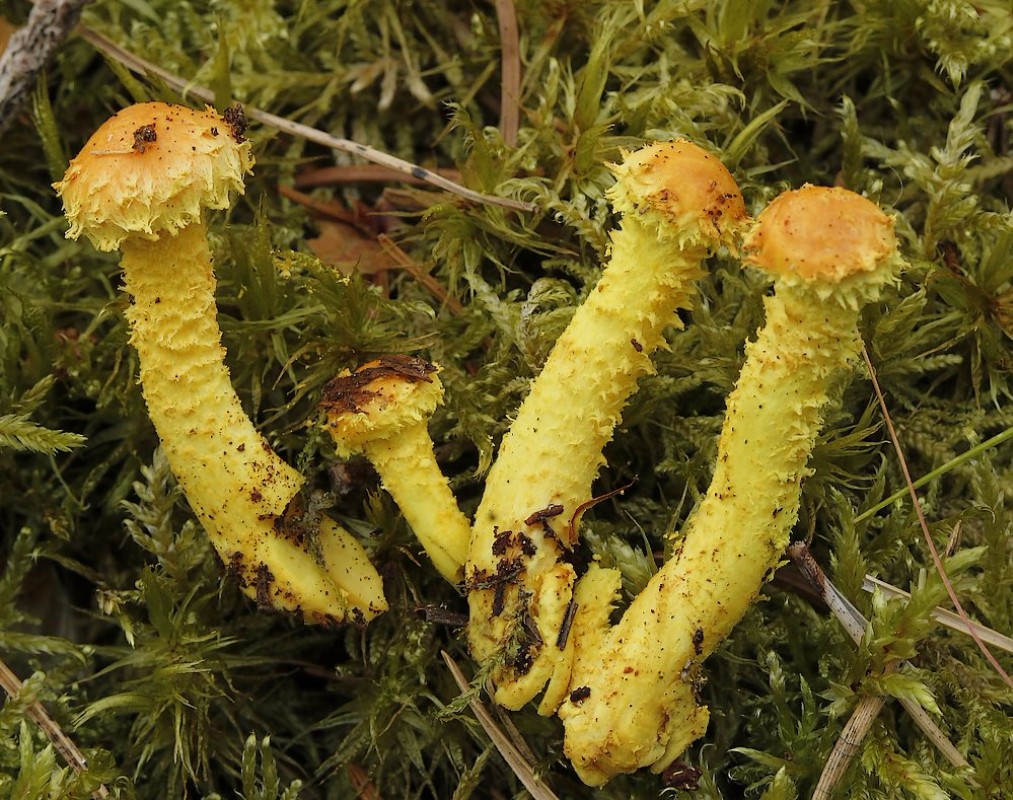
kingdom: Fungi
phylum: Basidiomycota
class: Agaricomycetes
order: Agaricales
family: Strophariaceae
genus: Pholiota
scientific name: Pholiota flammans
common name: flamme-skælhat
